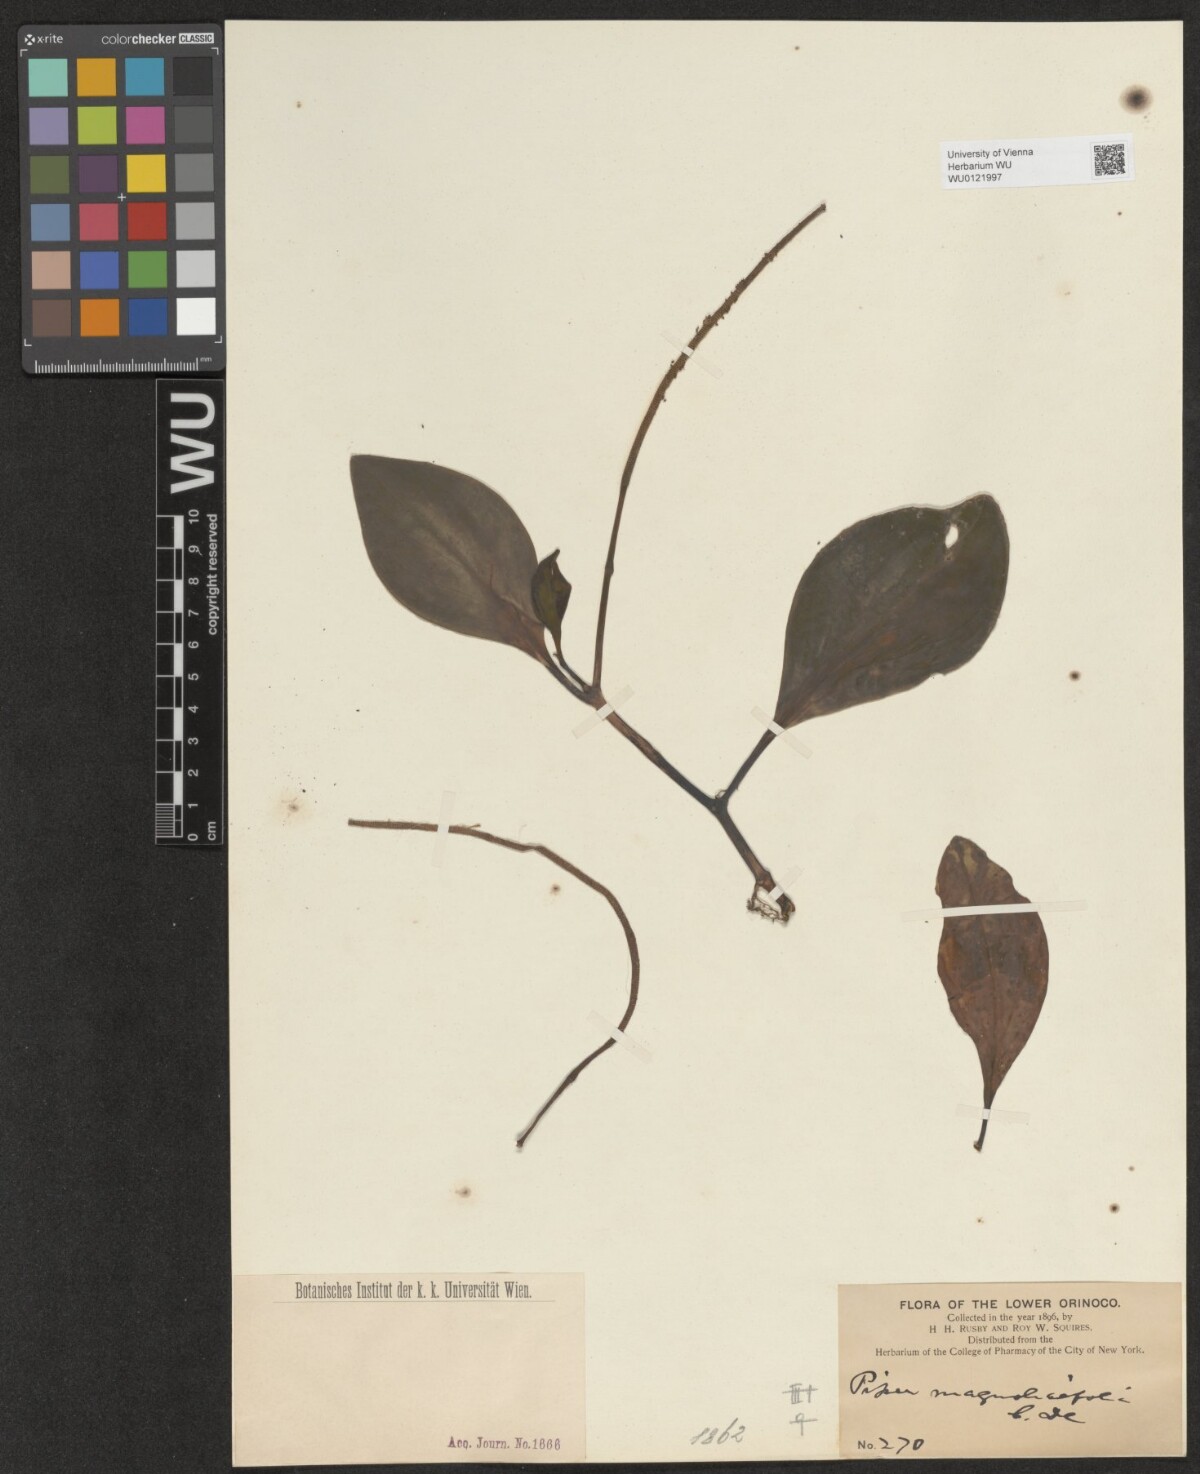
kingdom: Plantae
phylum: Tracheophyta
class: Magnoliopsida
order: Piperales
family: Piperaceae
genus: Peperomia
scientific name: Peperomia magnoliifolia
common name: Spoonleaf peperomia
